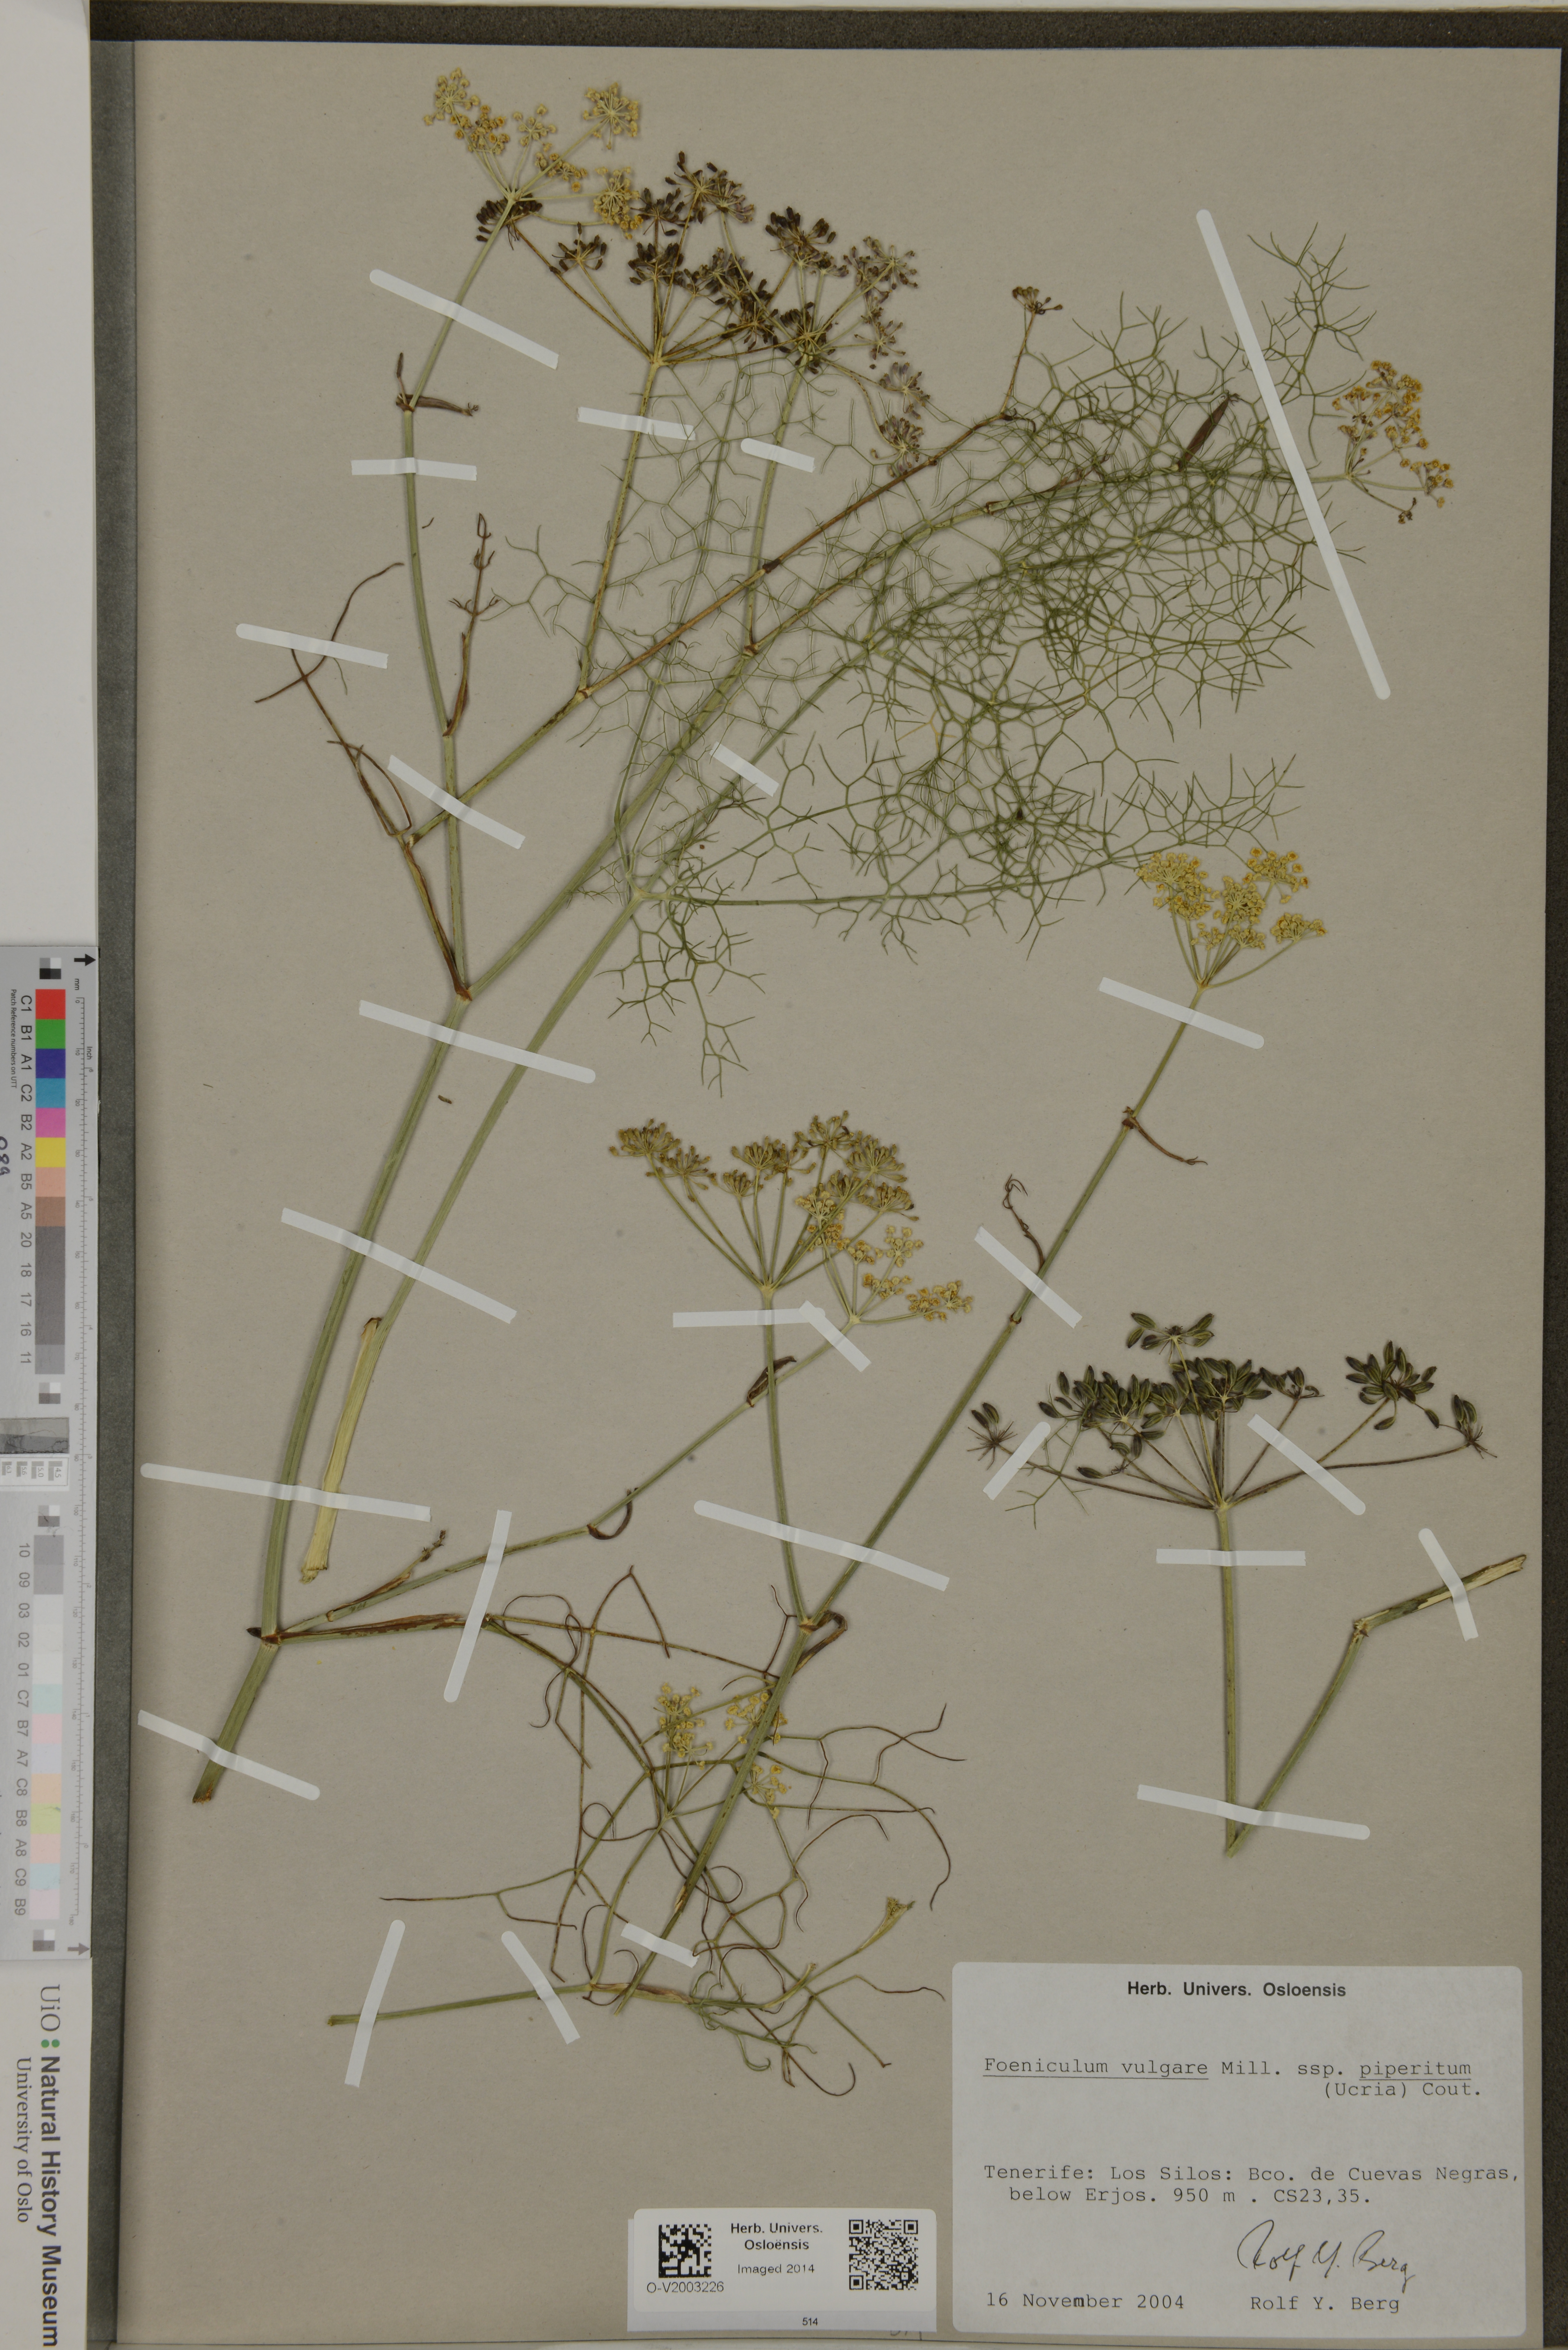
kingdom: Plantae
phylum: Tracheophyta
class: Magnoliopsida
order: Apiales
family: Apiaceae
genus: Foeniculum
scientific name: Foeniculum vulgare
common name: Fennel
